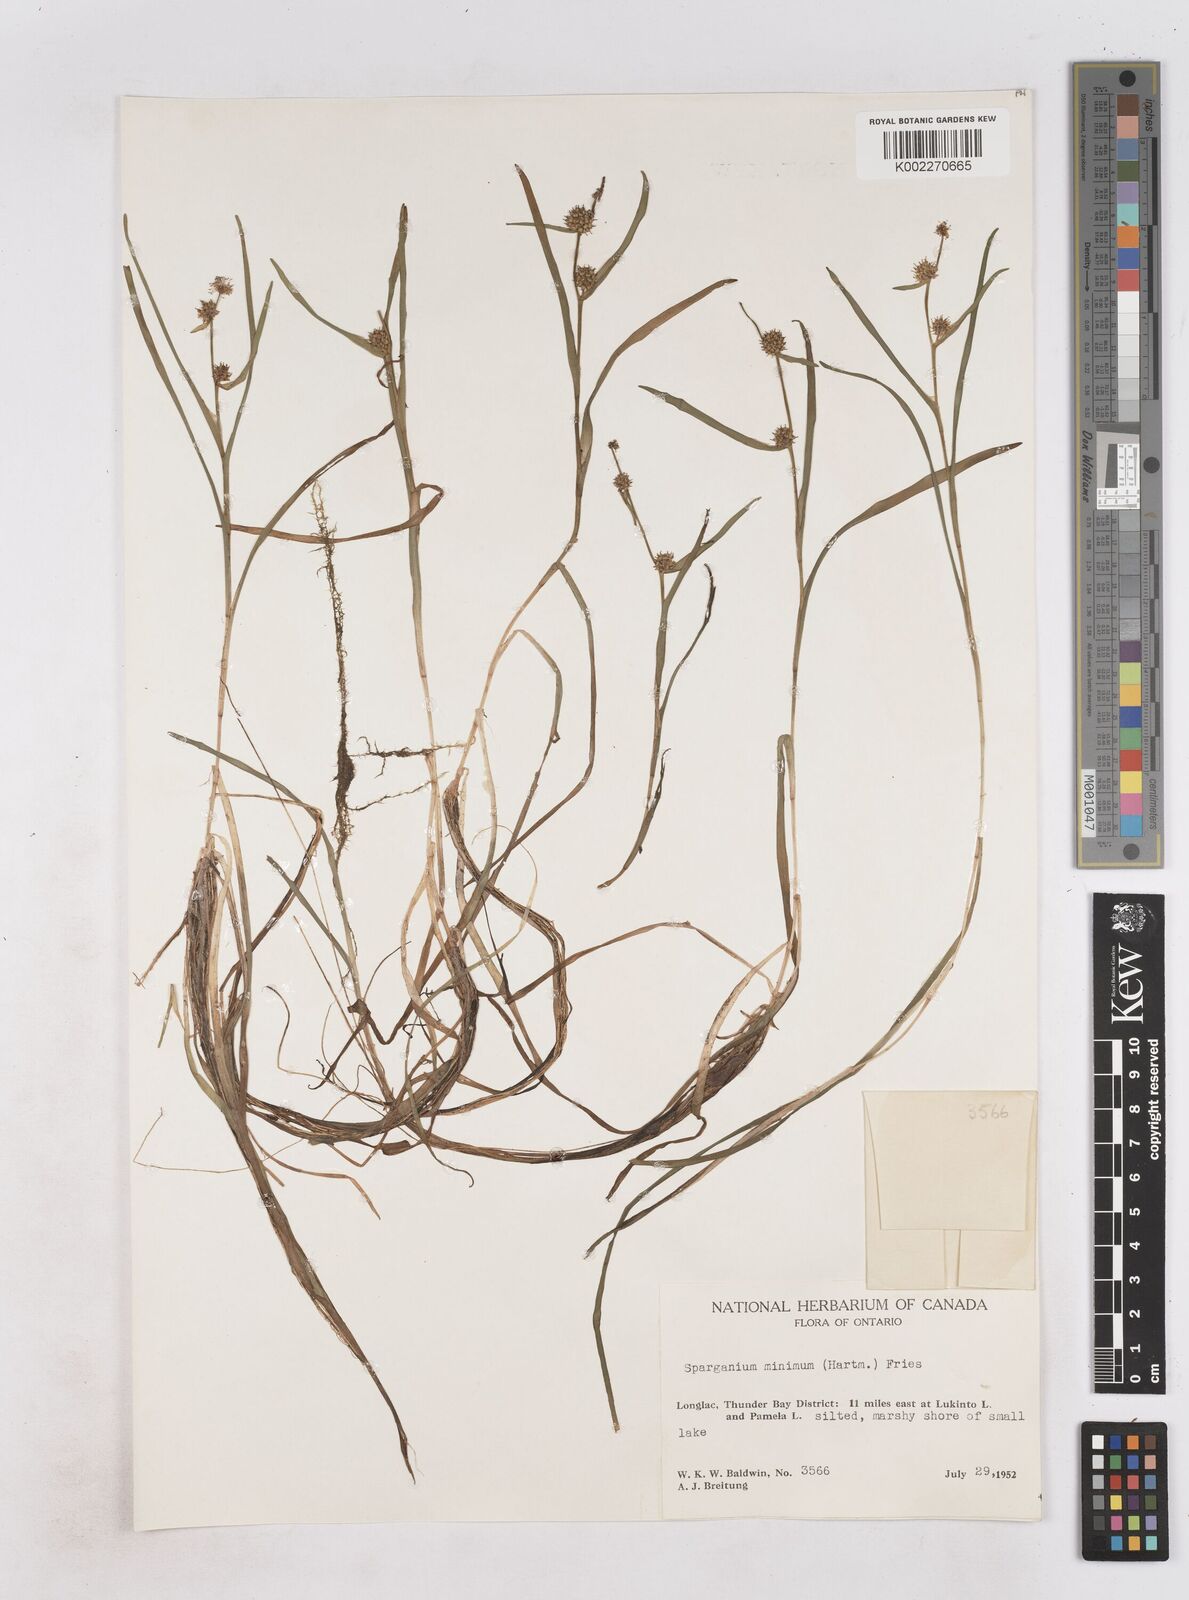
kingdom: Plantae
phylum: Tracheophyta
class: Liliopsida
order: Poales
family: Typhaceae
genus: Sparganium
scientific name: Sparganium natans
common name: Least bur-reed
